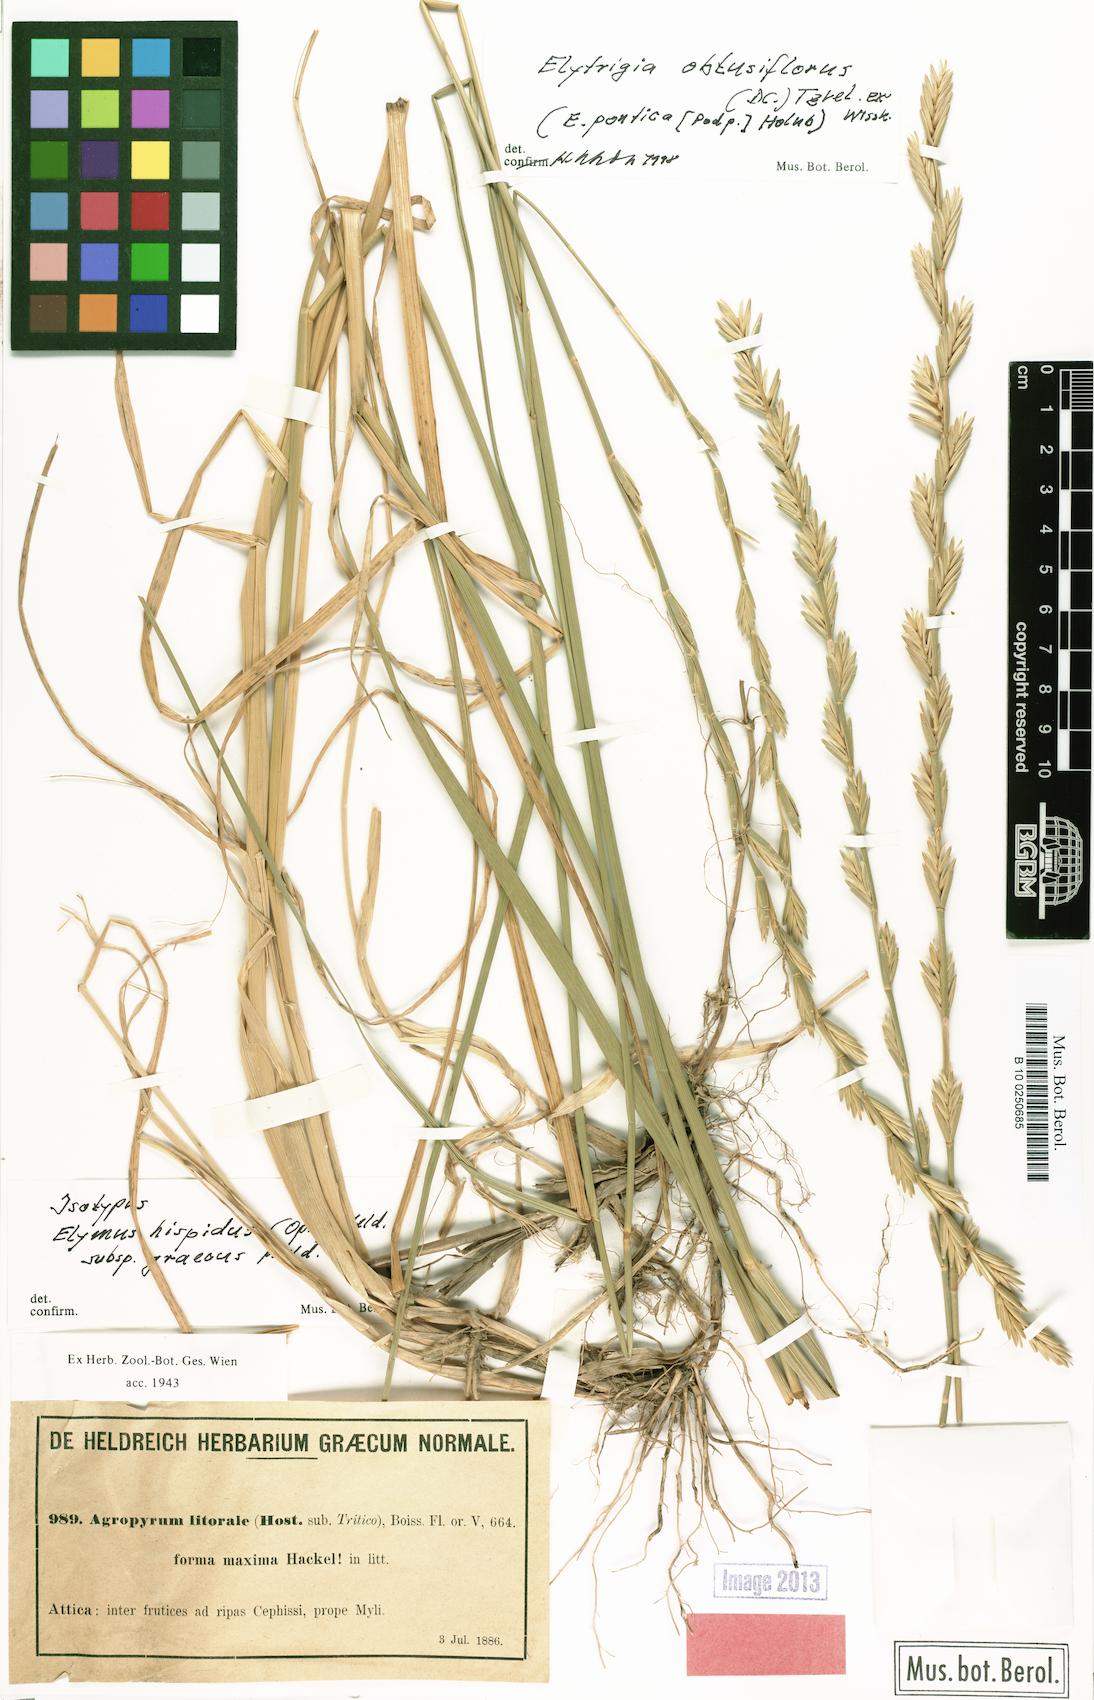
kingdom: Plantae
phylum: Tracheophyta
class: Liliopsida
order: Poales
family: Poaceae
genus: Thinopyrum
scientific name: Thinopyrum intermedium
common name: Intermediate wheatgrass
